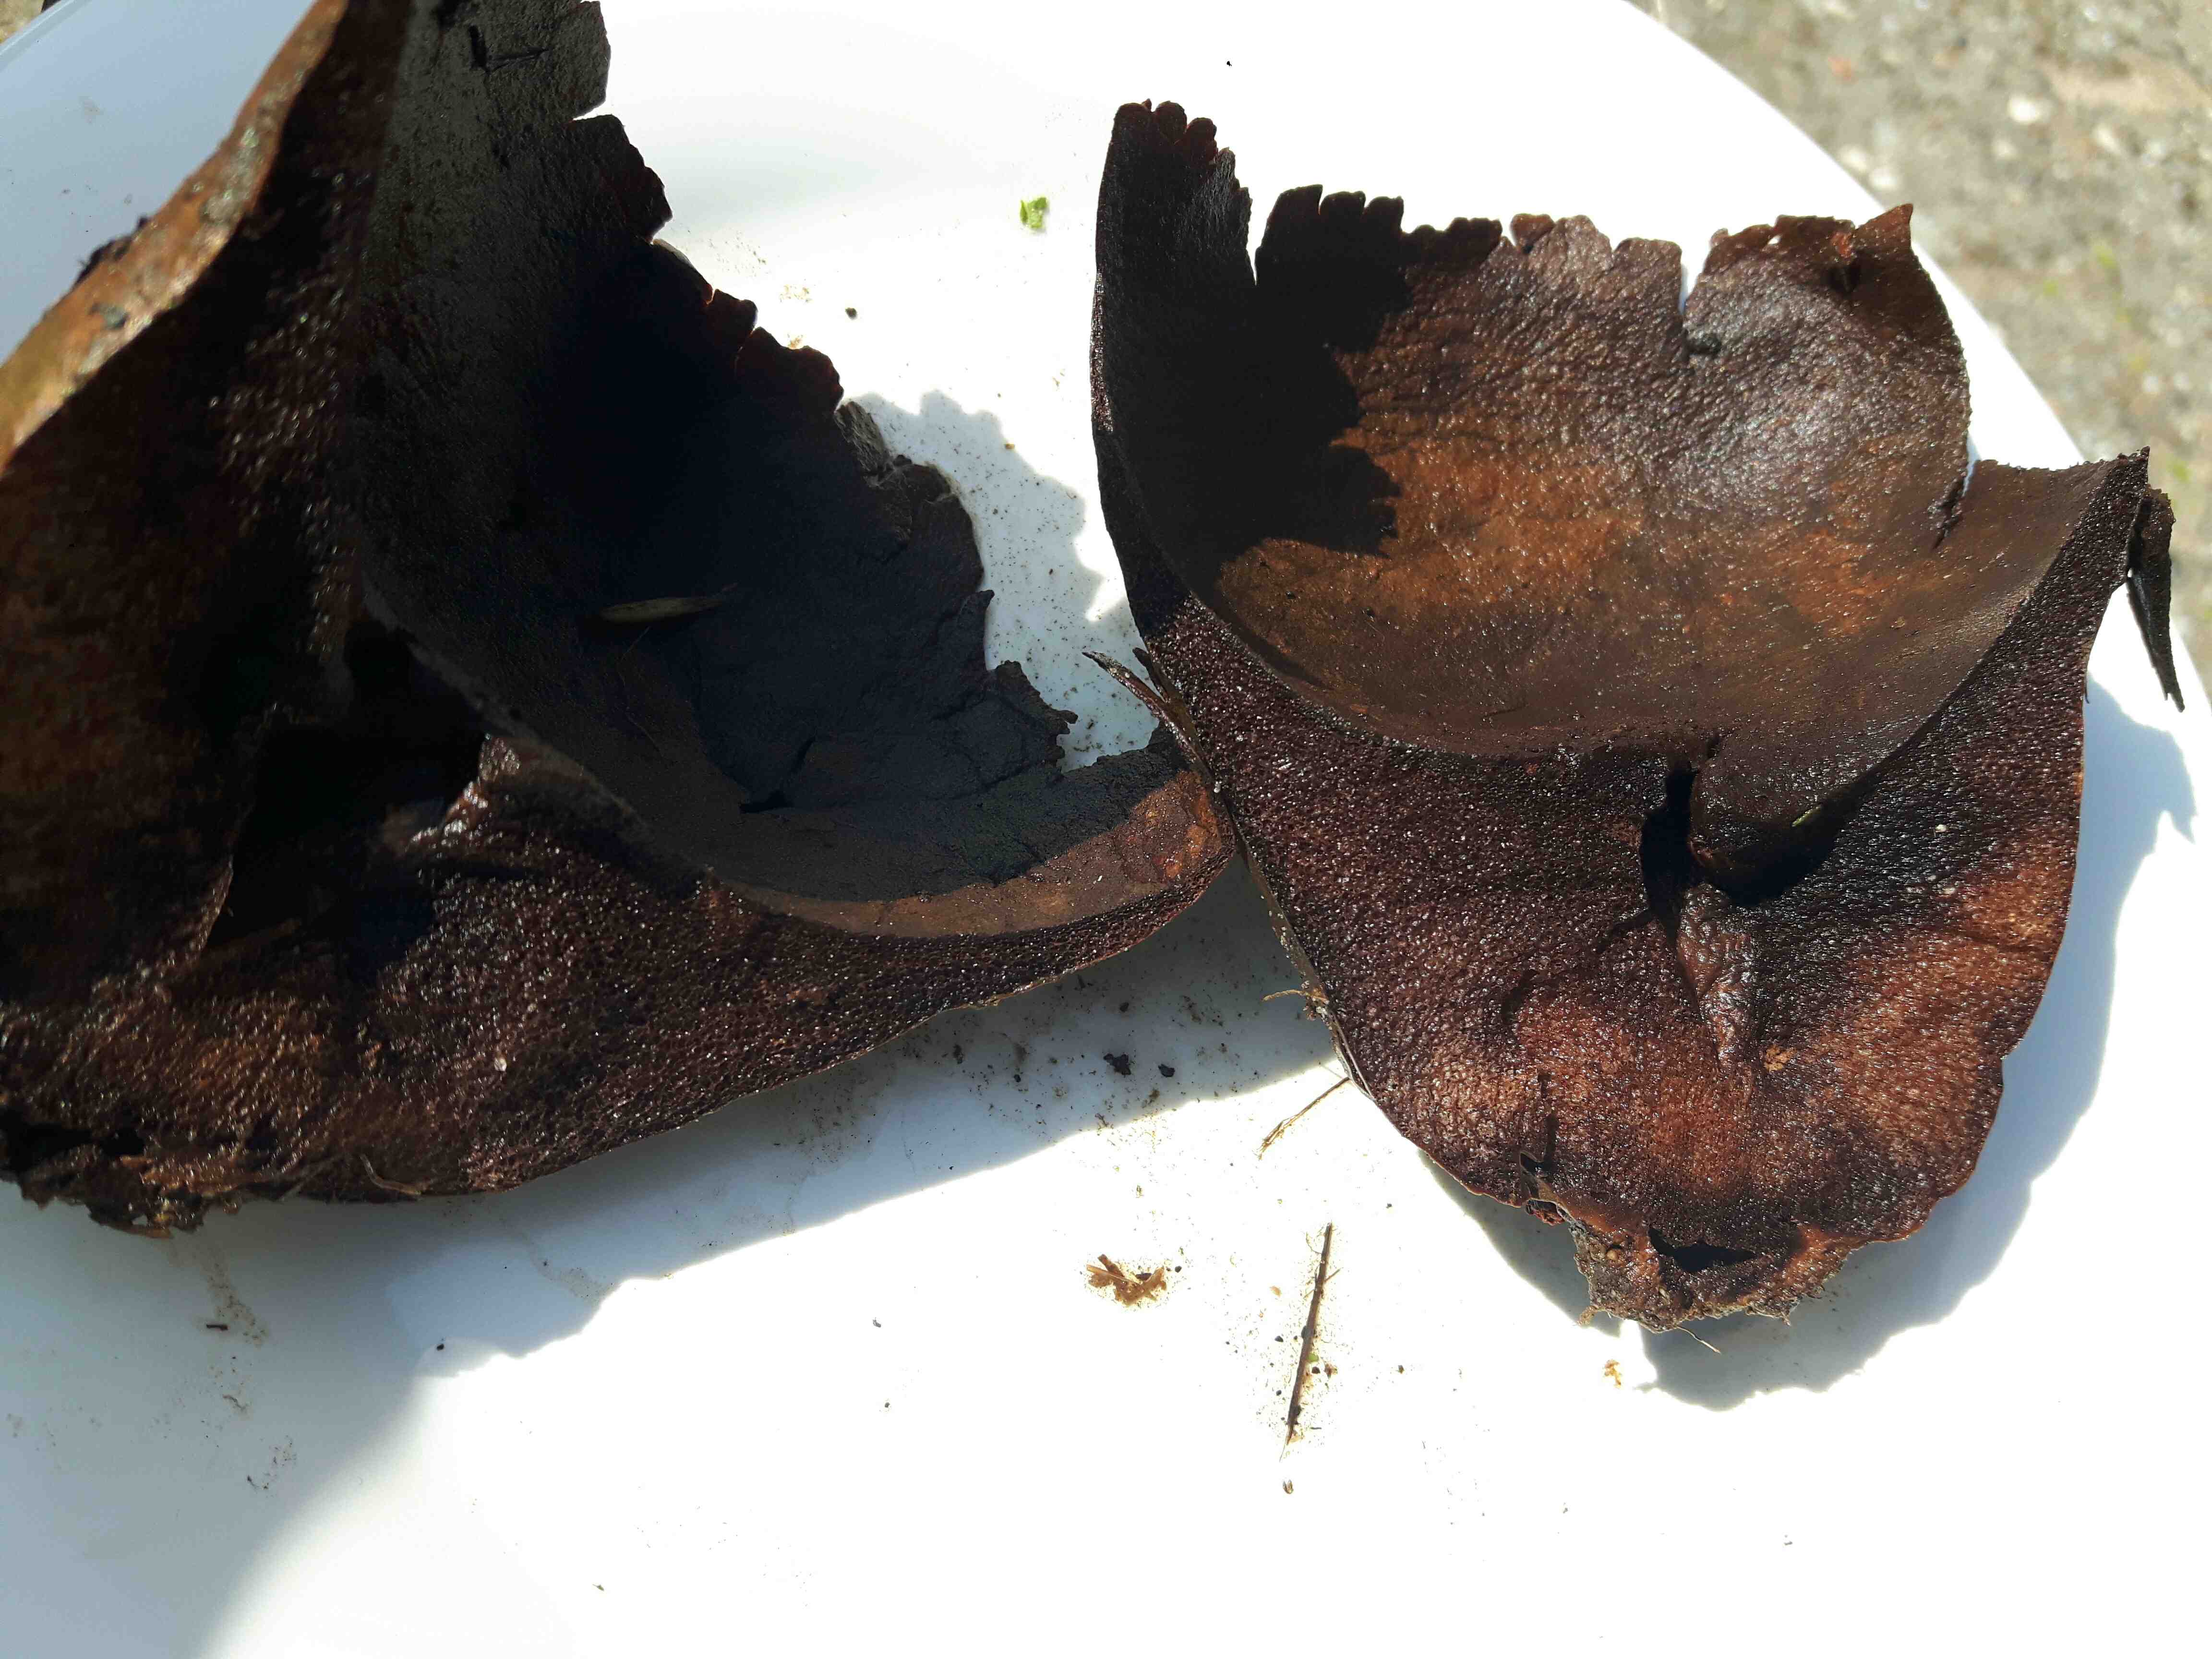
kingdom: Fungi
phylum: Basidiomycota
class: Agaricomycetes
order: Agaricales
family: Lycoperdaceae
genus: Bovistella
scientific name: Bovistella utriformis
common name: skællet støvbold
